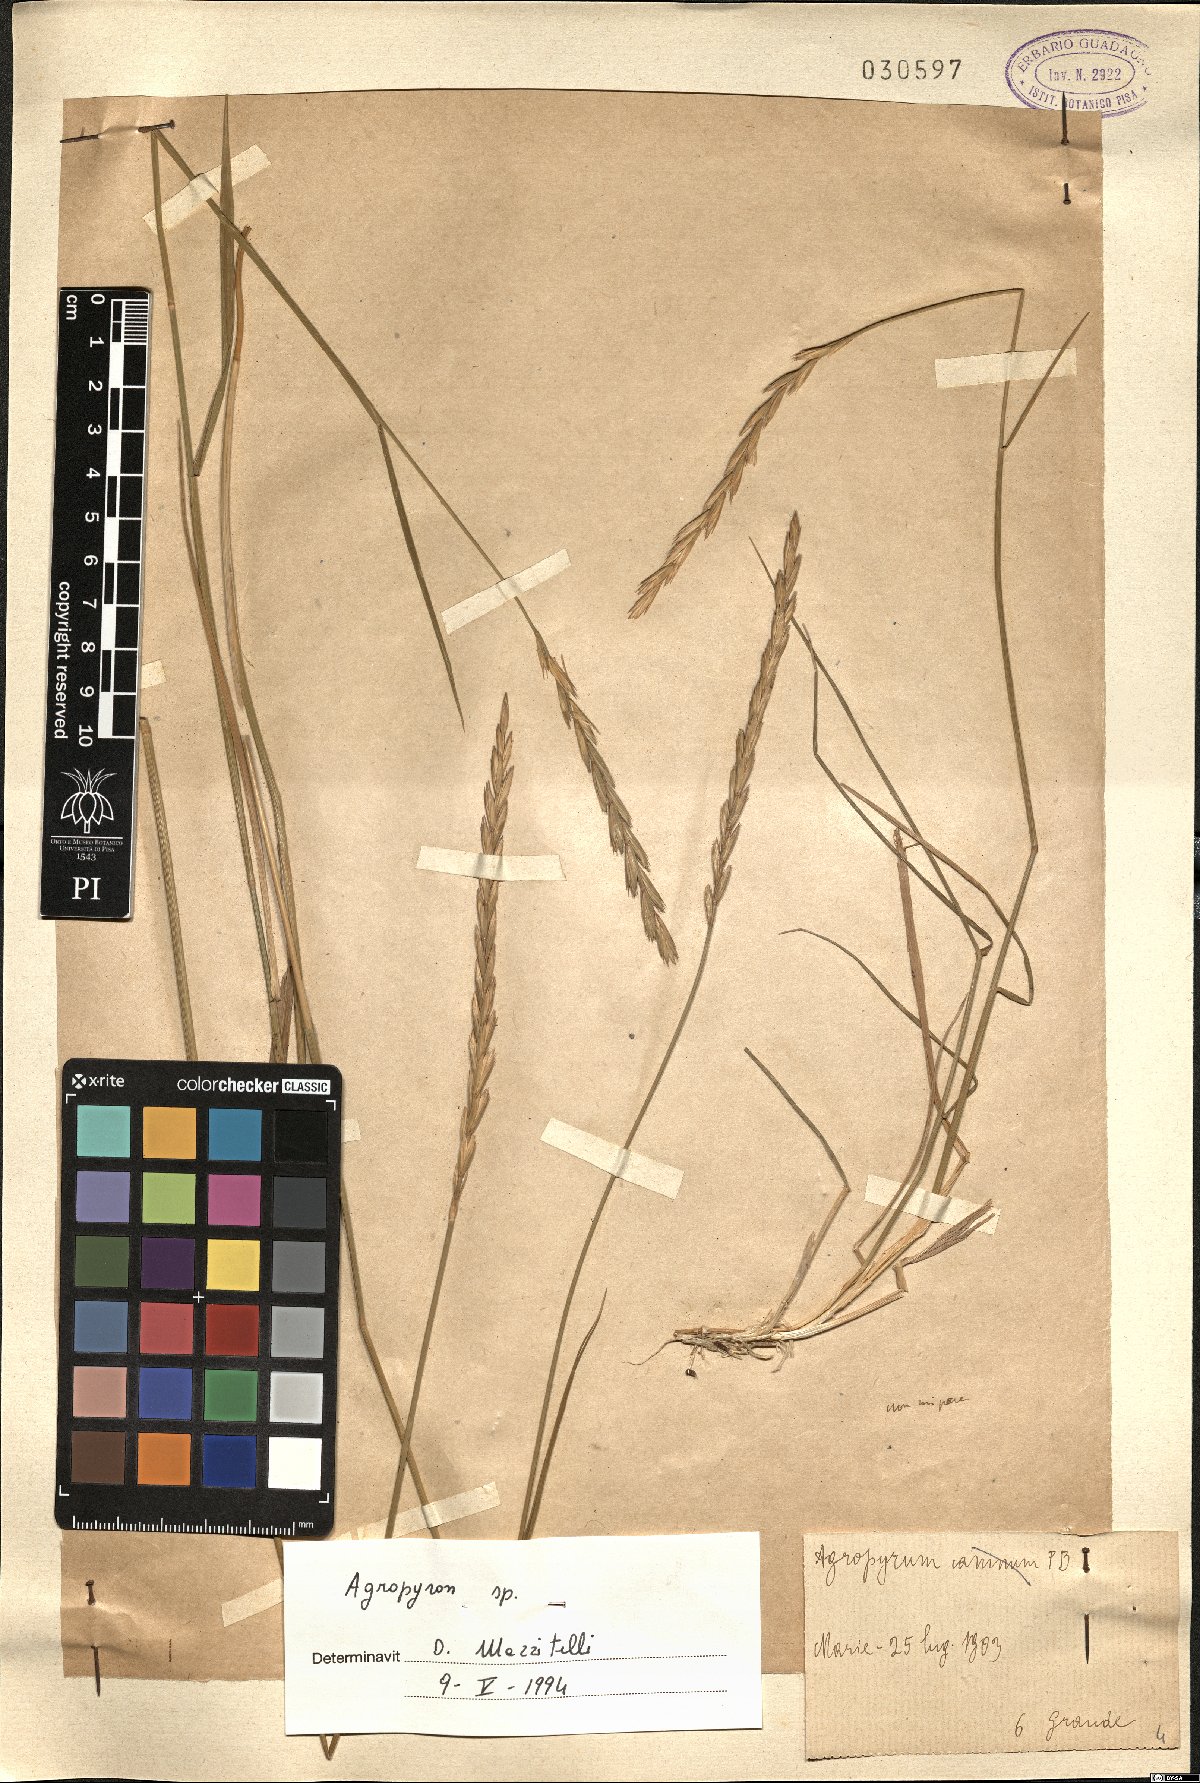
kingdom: Plantae
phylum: Tracheophyta
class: Liliopsida
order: Poales
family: Poaceae
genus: Agropyron
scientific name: Agropyron
